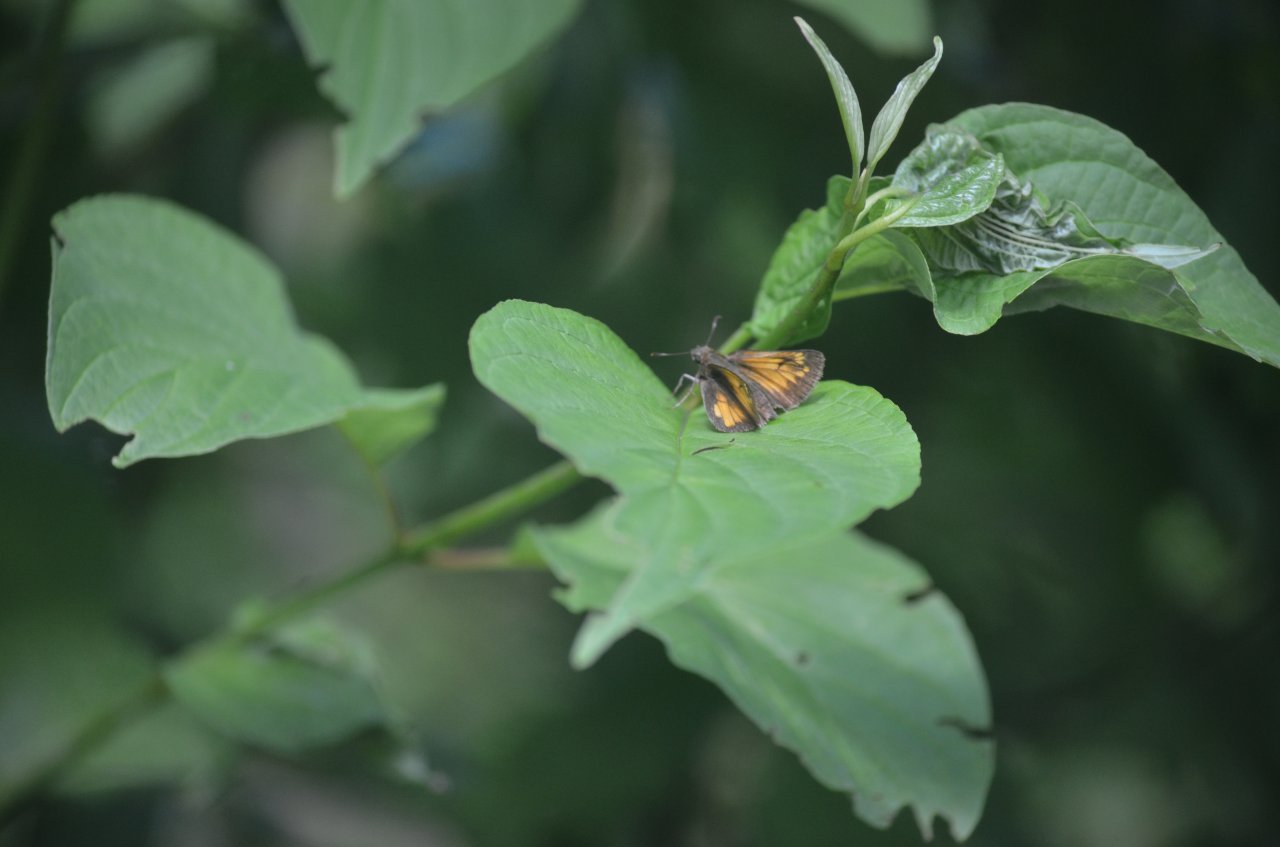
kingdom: Animalia
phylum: Arthropoda
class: Insecta
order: Lepidoptera
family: Hesperiidae
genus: Lon
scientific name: Lon hobomok
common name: Hobomok Skipper
